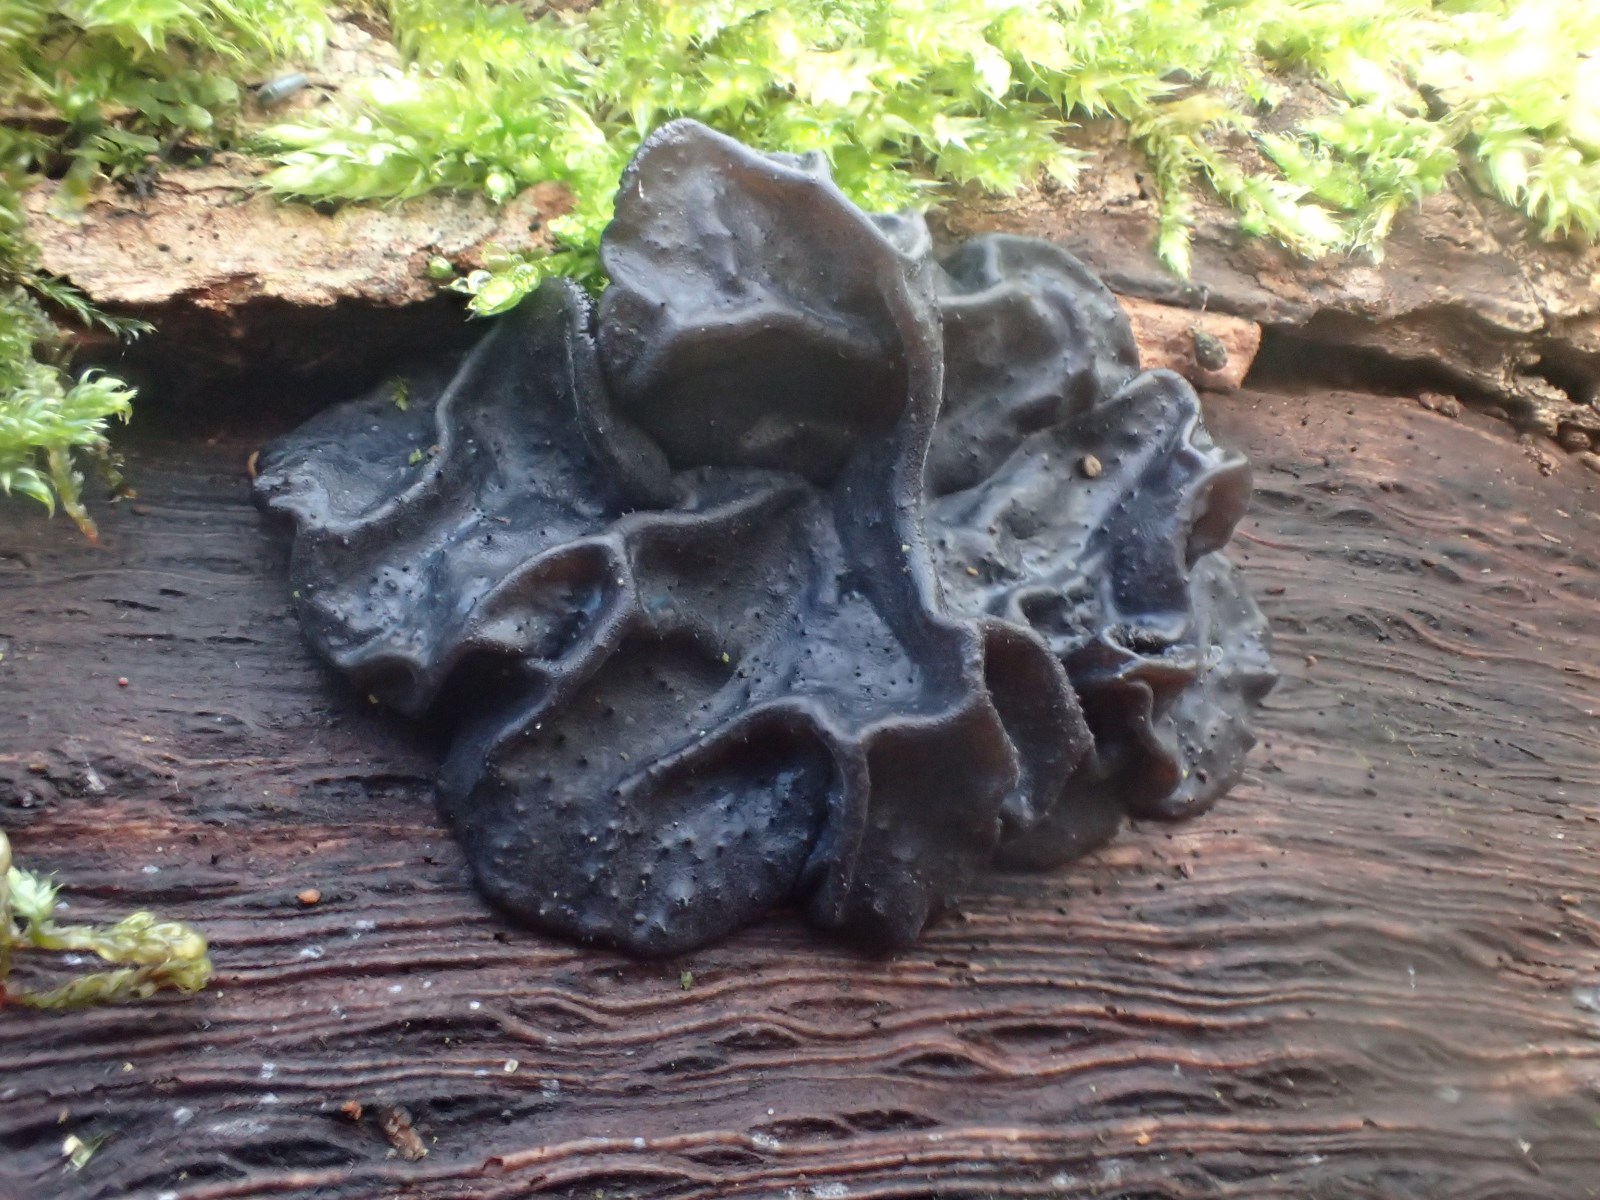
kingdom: Fungi
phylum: Basidiomycota
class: Agaricomycetes
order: Auriculariales
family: Auriculariaceae
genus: Exidia
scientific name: Exidia glandulosa
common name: ege-bævretop
